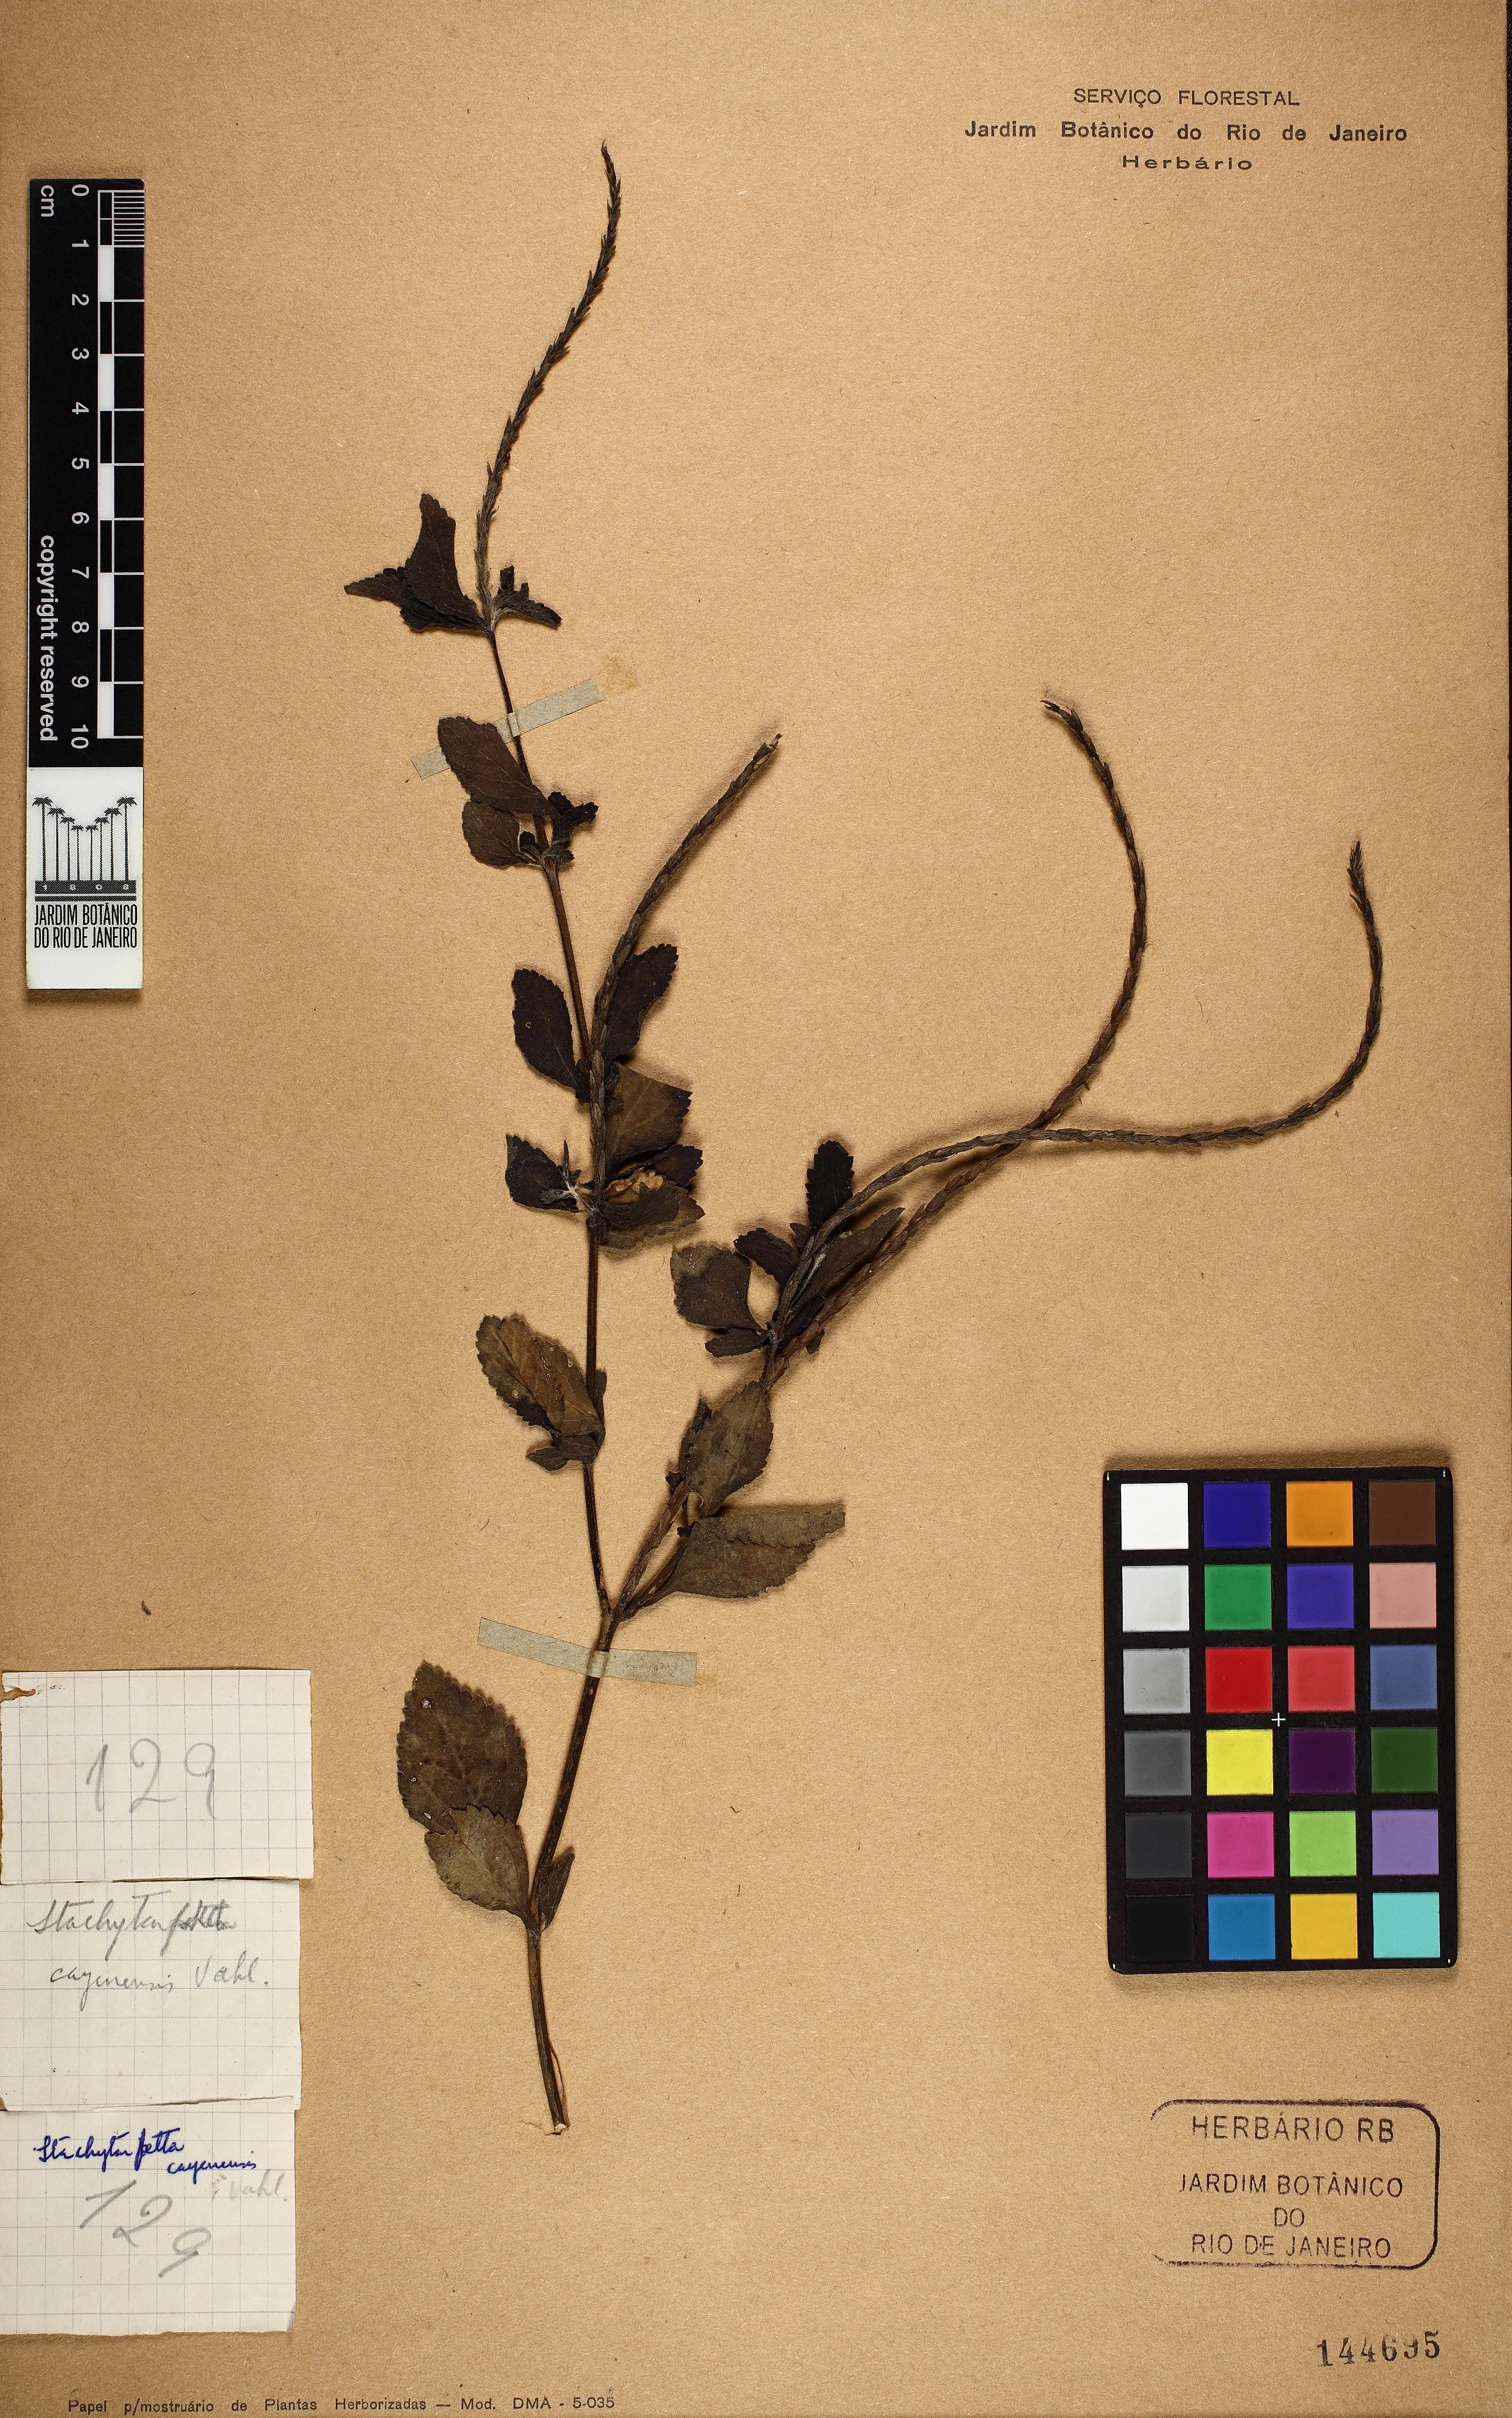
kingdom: Plantae
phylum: Tracheophyta
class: Magnoliopsida
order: Lamiales
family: Verbenaceae
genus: Stachytarpheta
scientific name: Stachytarpheta cayennensis
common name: Cayenne porterweed
